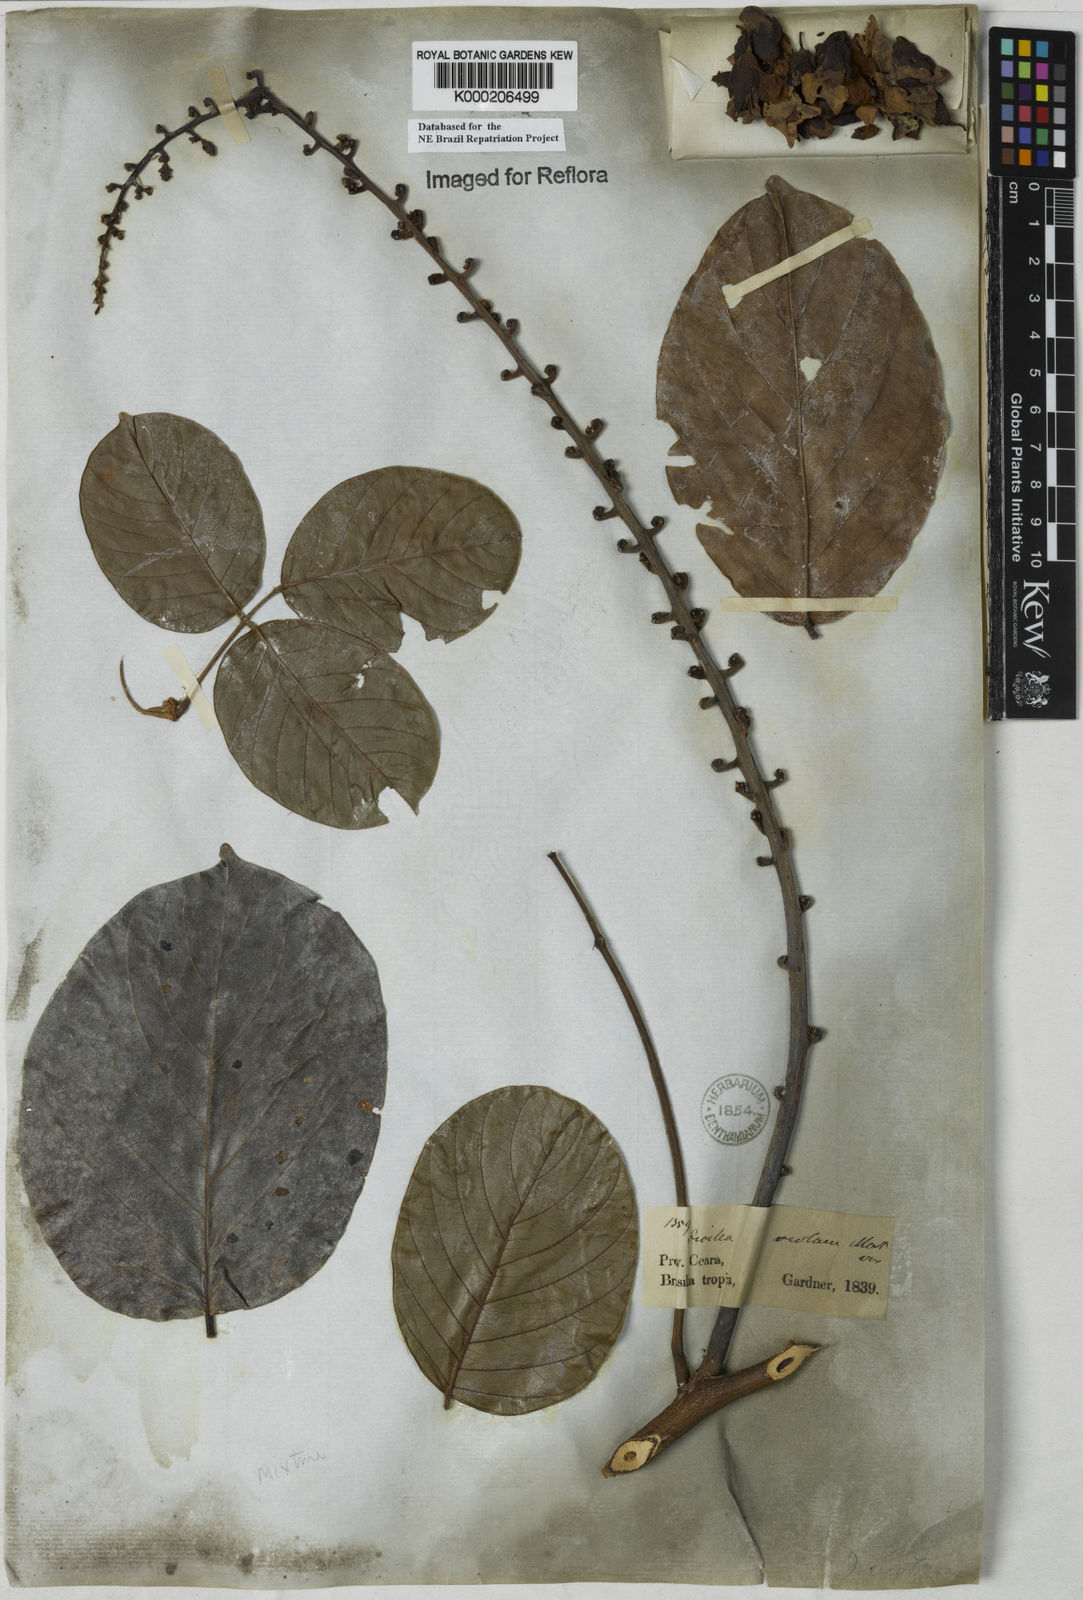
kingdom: Plantae
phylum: Tracheophyta
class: Magnoliopsida
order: Fabales
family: Fabaceae
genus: Macropsychanthus
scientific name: Macropsychanthus violaceus
